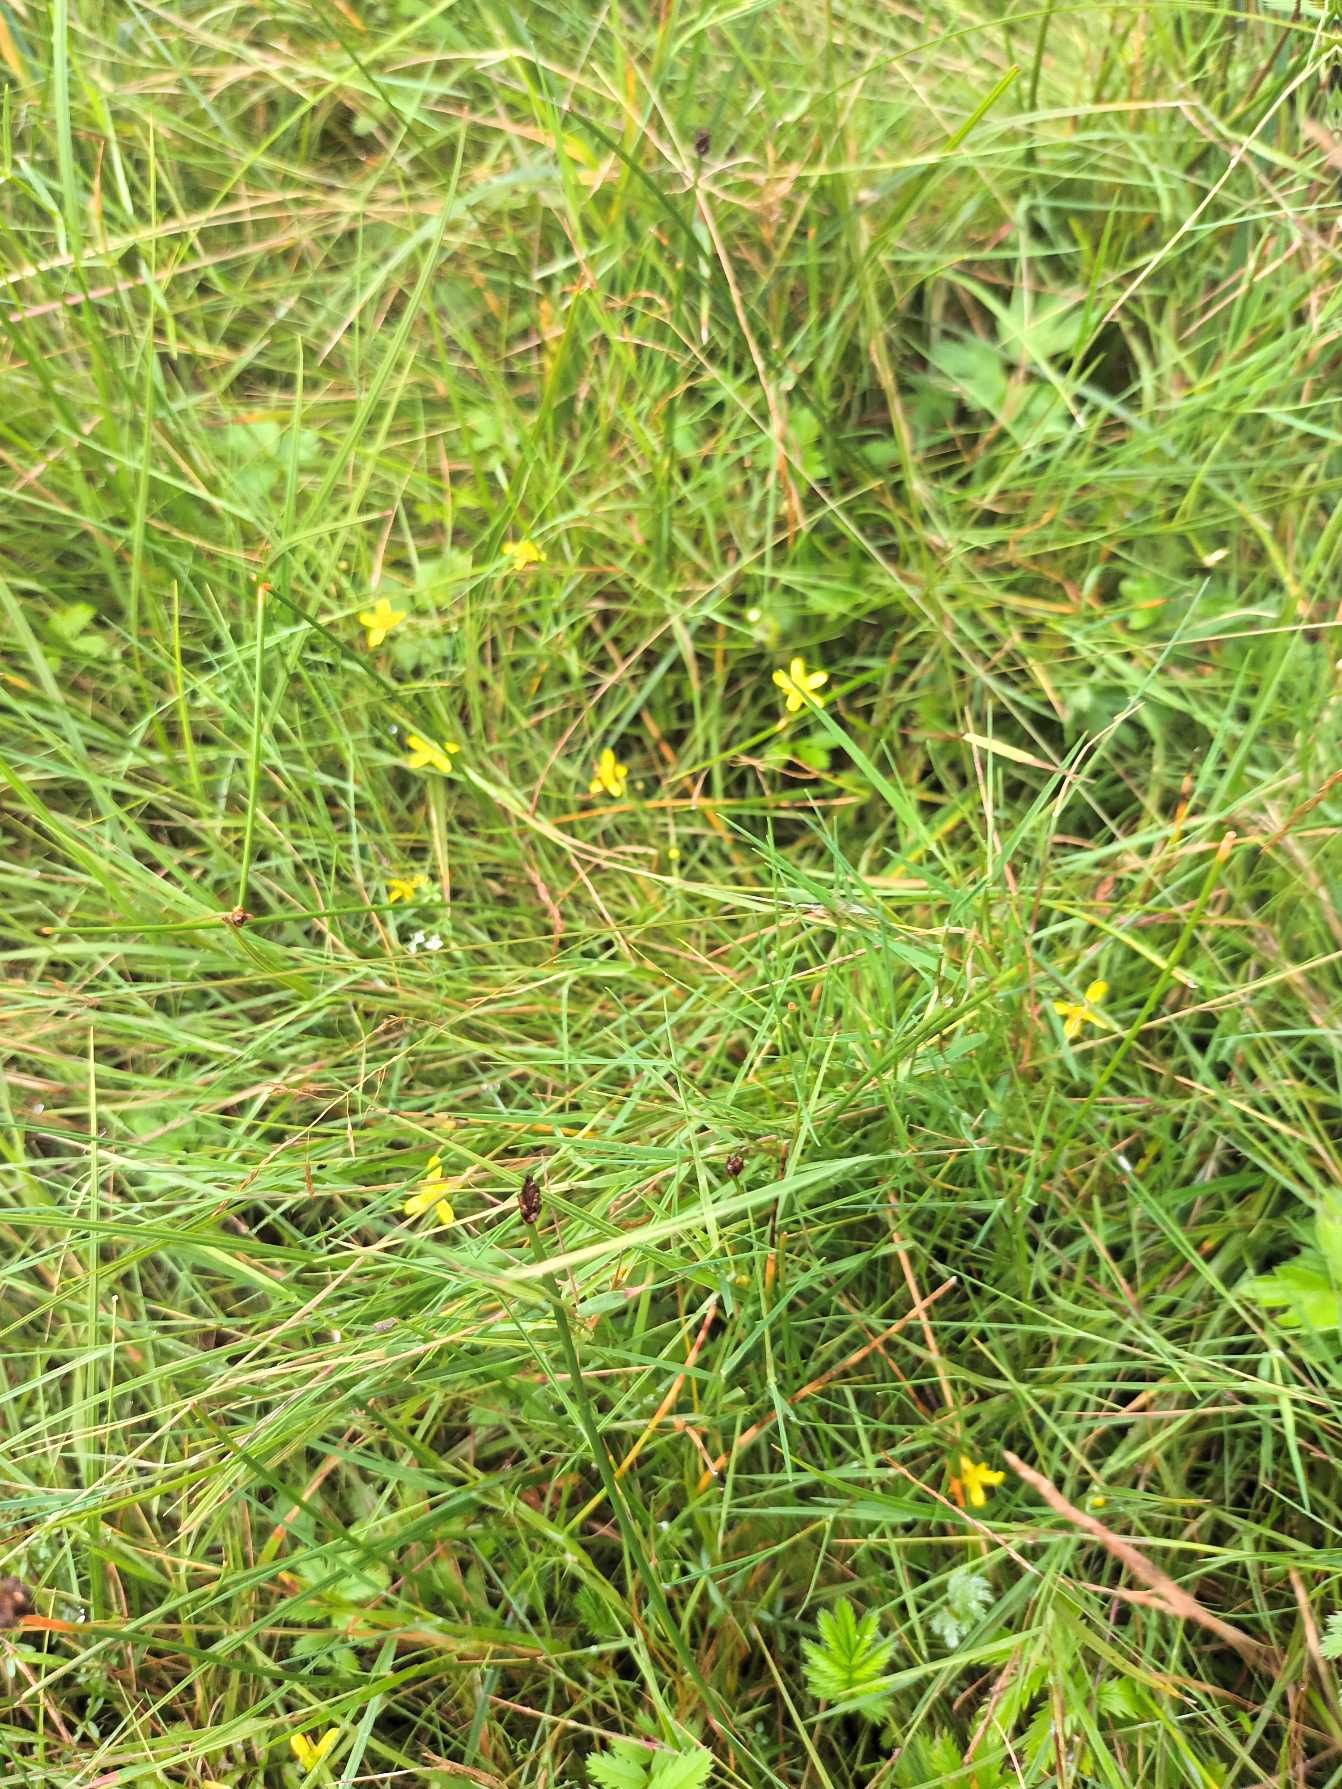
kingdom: Plantae
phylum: Tracheophyta
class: Magnoliopsida
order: Ranunculales
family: Ranunculaceae
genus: Ranunculus
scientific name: Ranunculus
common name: Ranunkelslægten
